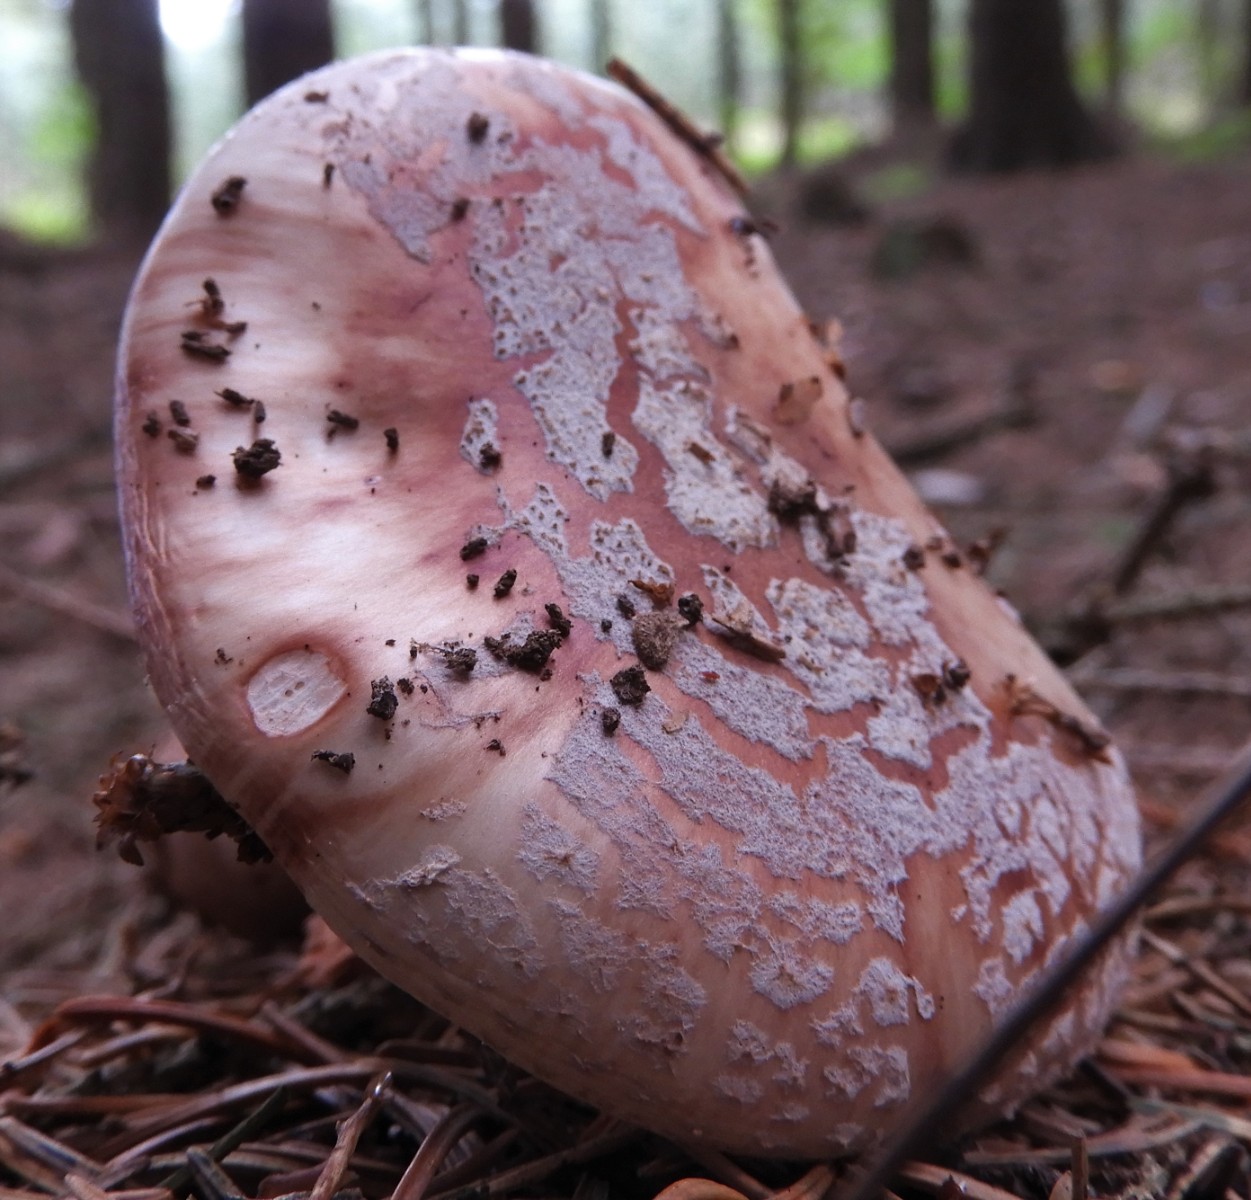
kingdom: Fungi
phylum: Basidiomycota
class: Agaricomycetes
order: Agaricales
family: Amanitaceae
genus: Amanita
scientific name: Amanita rubescens
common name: rødmende fluesvamp
